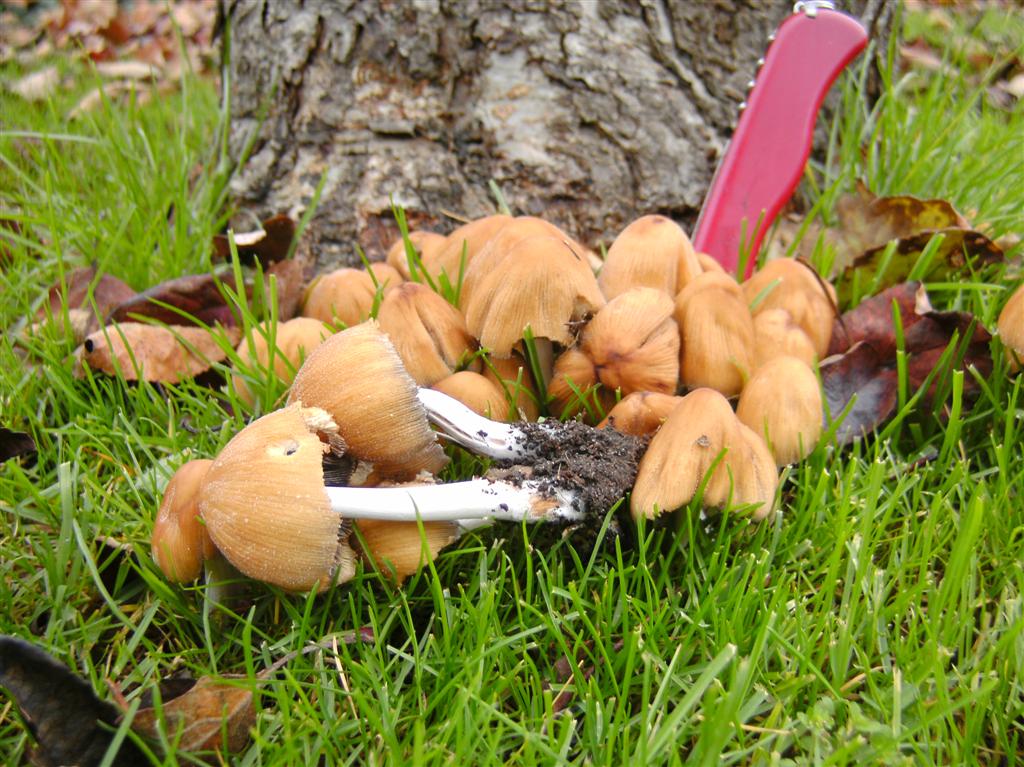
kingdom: Fungi
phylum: Basidiomycota
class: Agaricomycetes
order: Agaricales
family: Psathyrellaceae
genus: Coprinellus
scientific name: Coprinellus micaceus
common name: glimmer-blækhat
